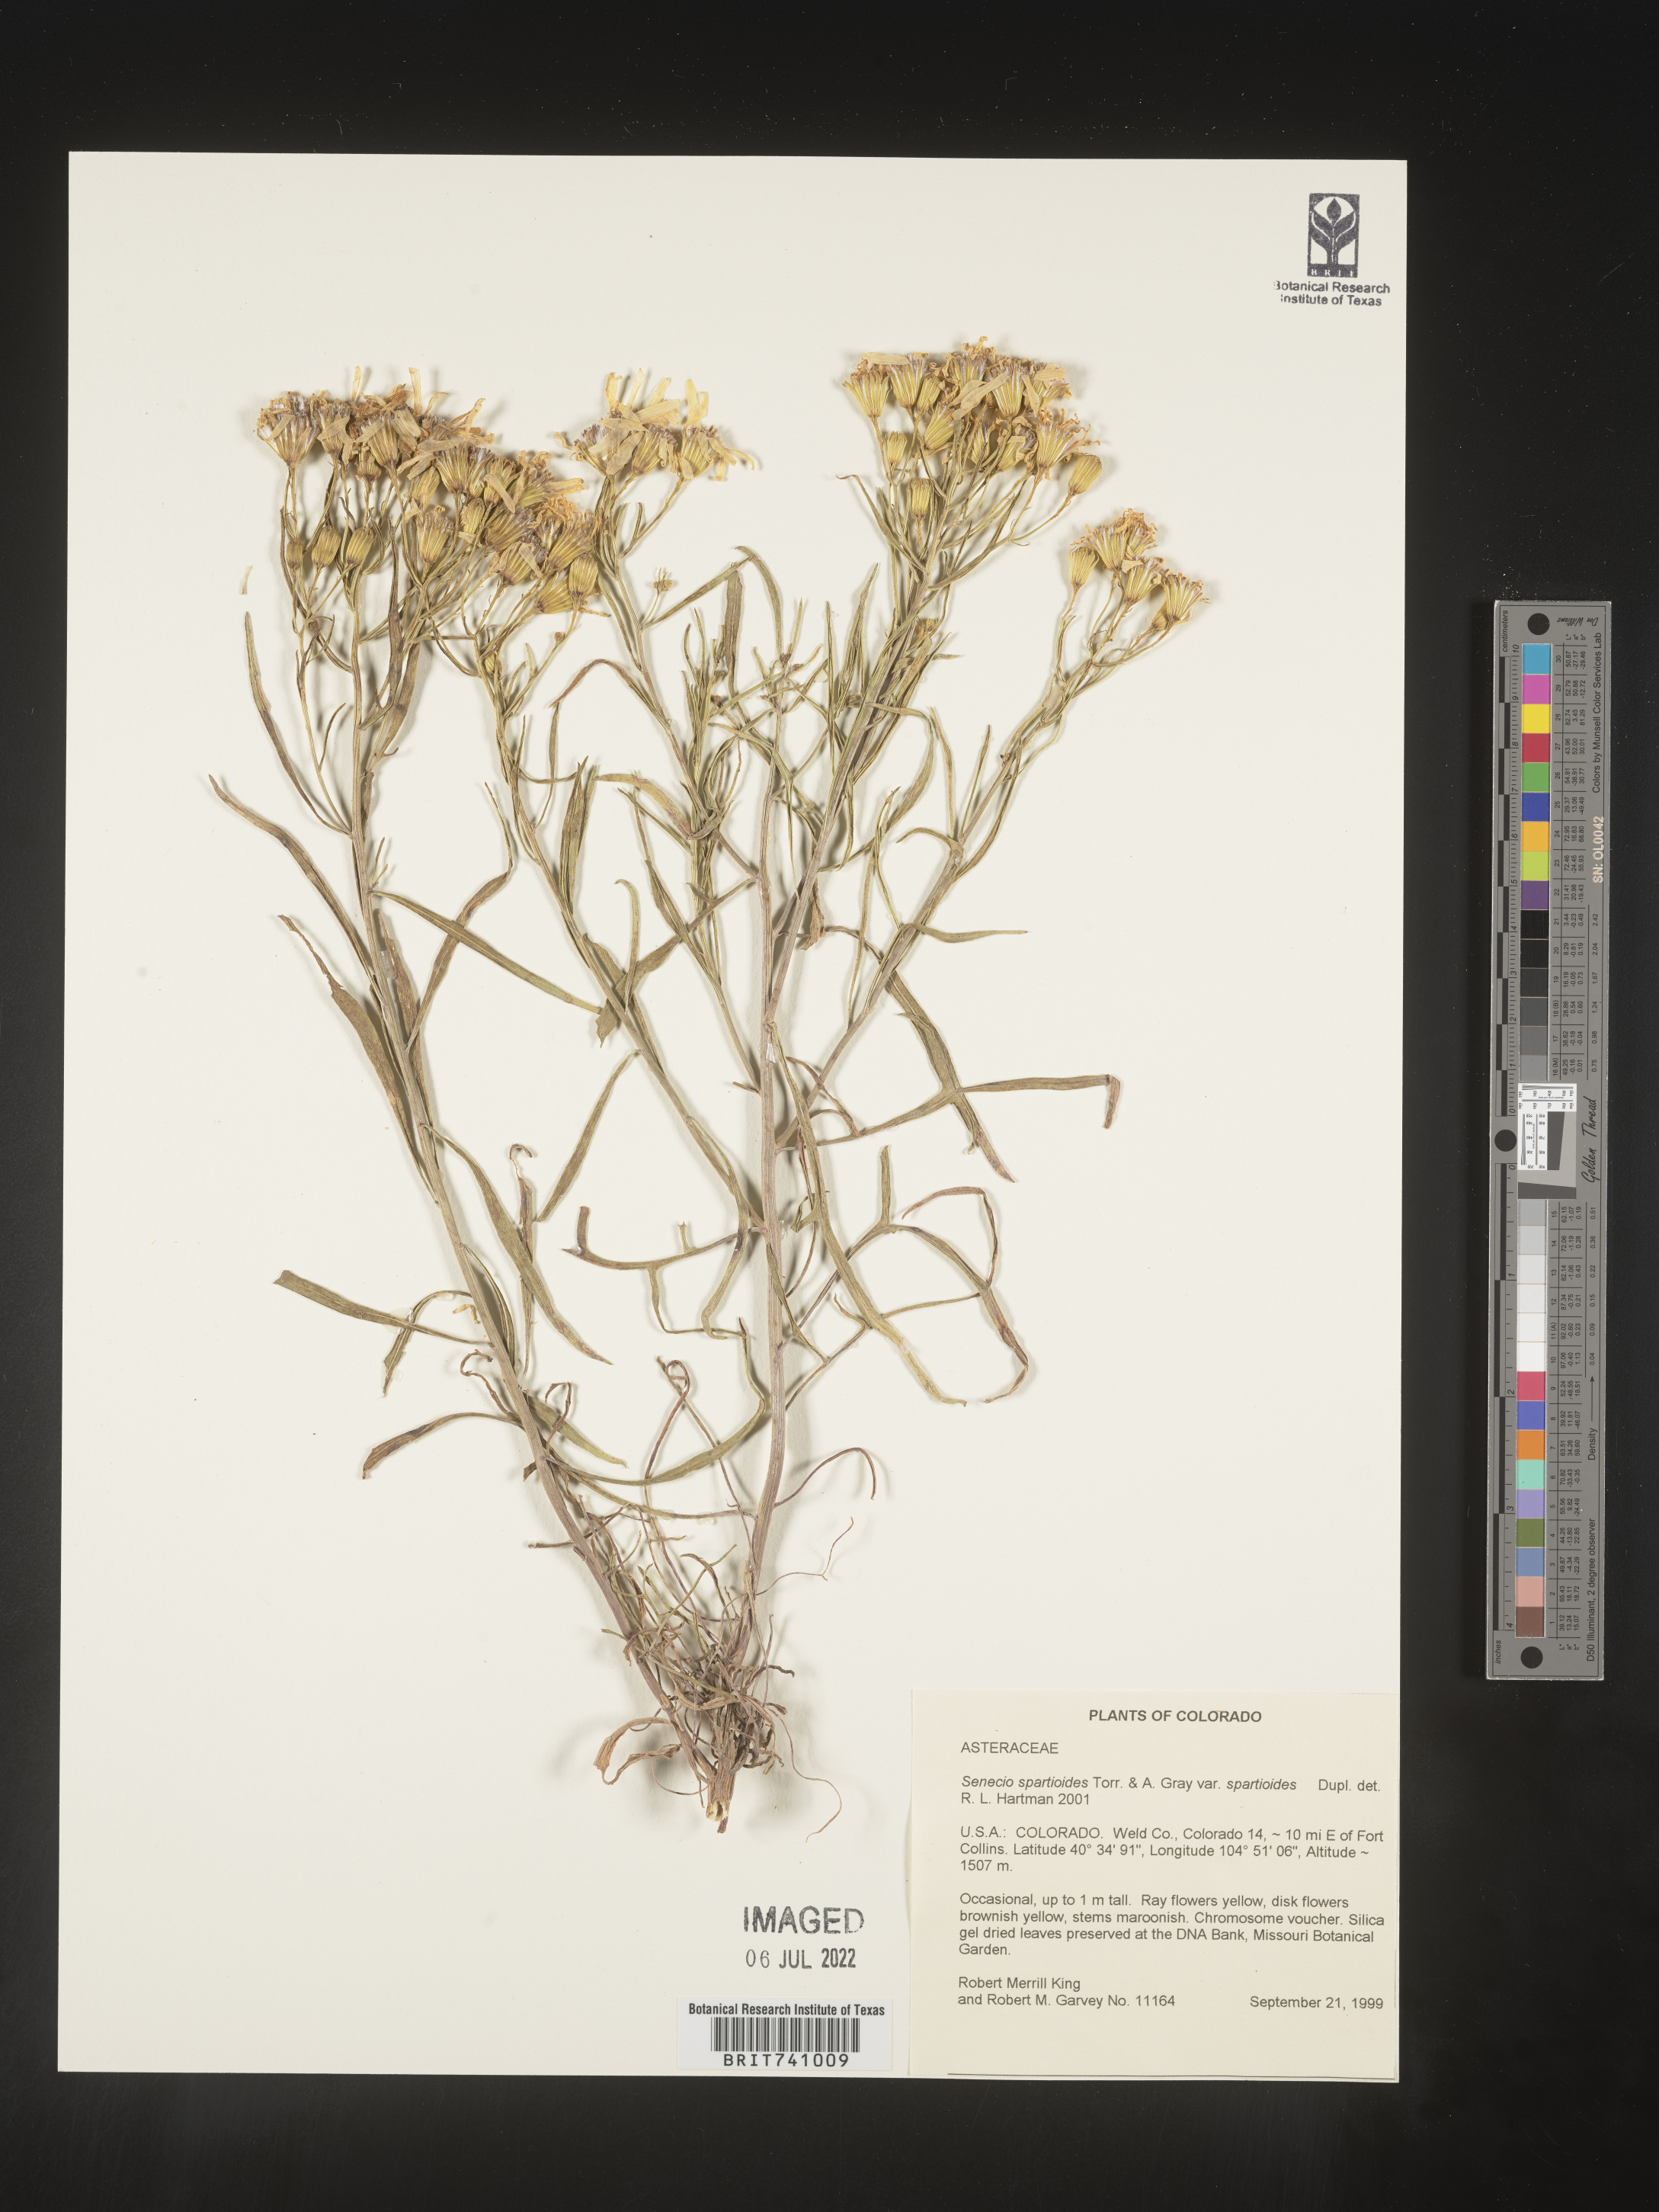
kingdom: Plantae
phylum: Tracheophyta
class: Magnoliopsida
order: Asterales
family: Asteraceae
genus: Senecio
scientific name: Senecio spartioides
